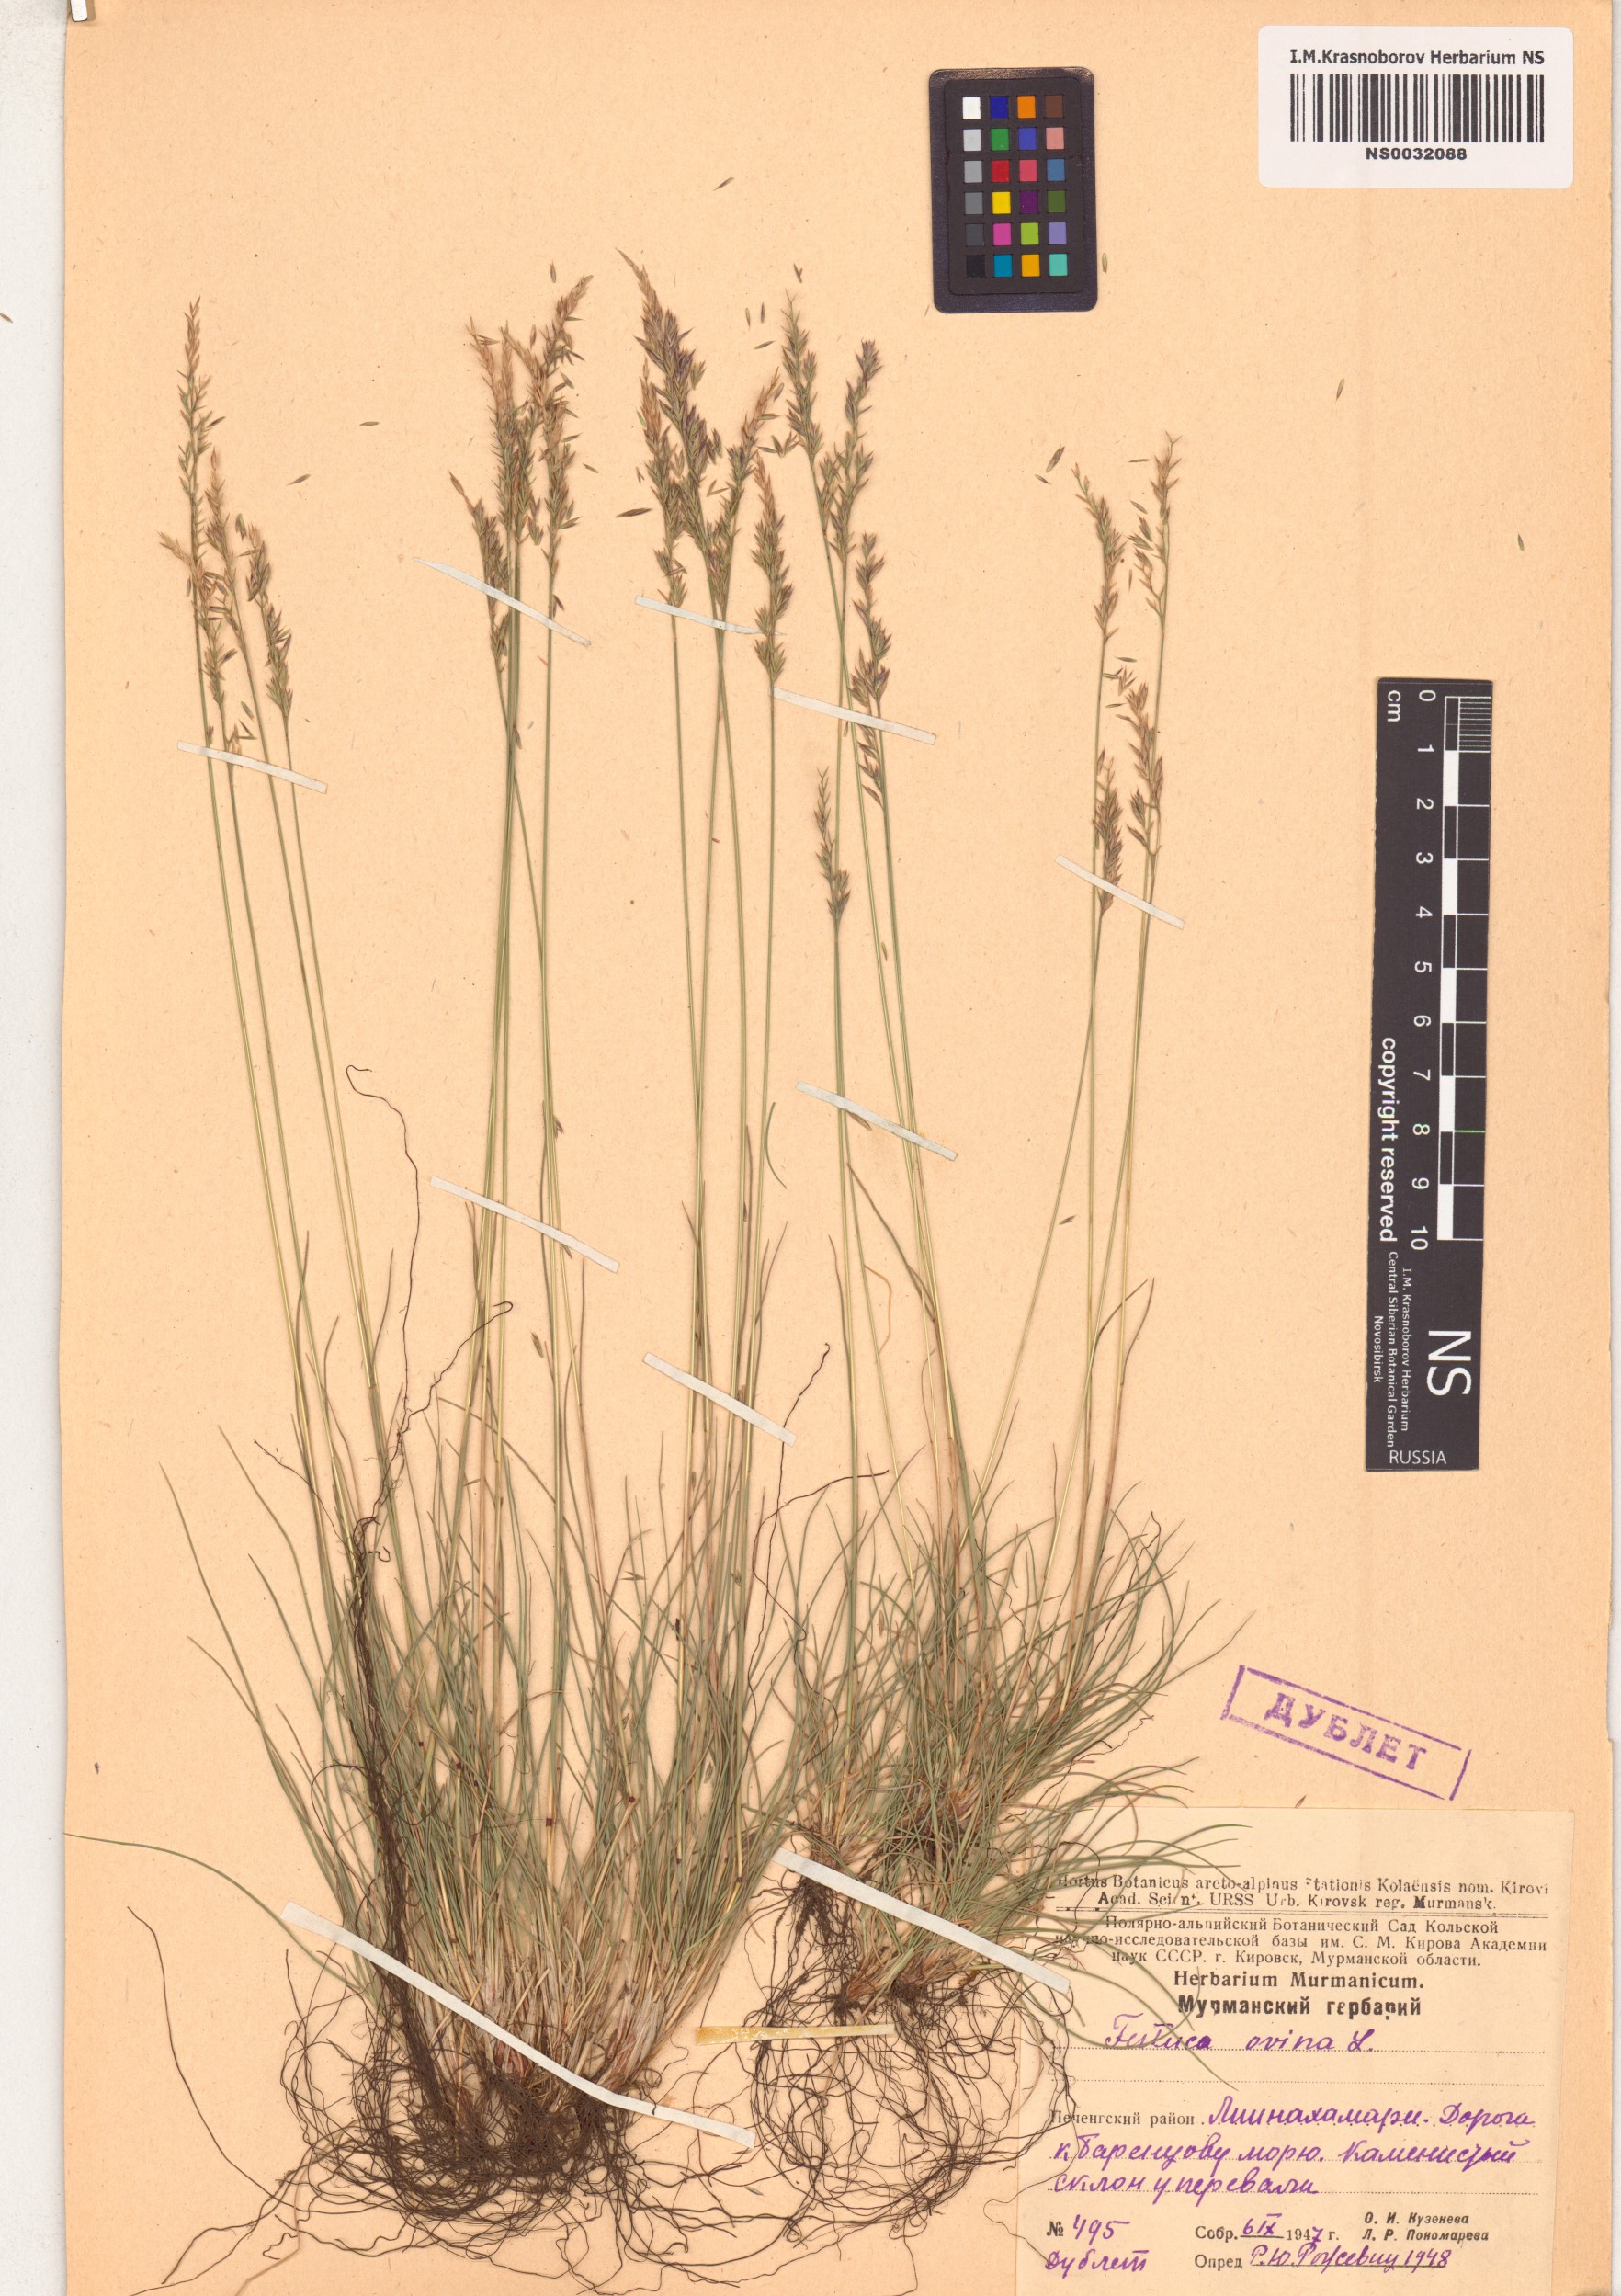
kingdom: Plantae
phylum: Tracheophyta
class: Liliopsida
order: Poales
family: Poaceae
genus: Festuca
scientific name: Festuca ovina
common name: Sheep fescue
